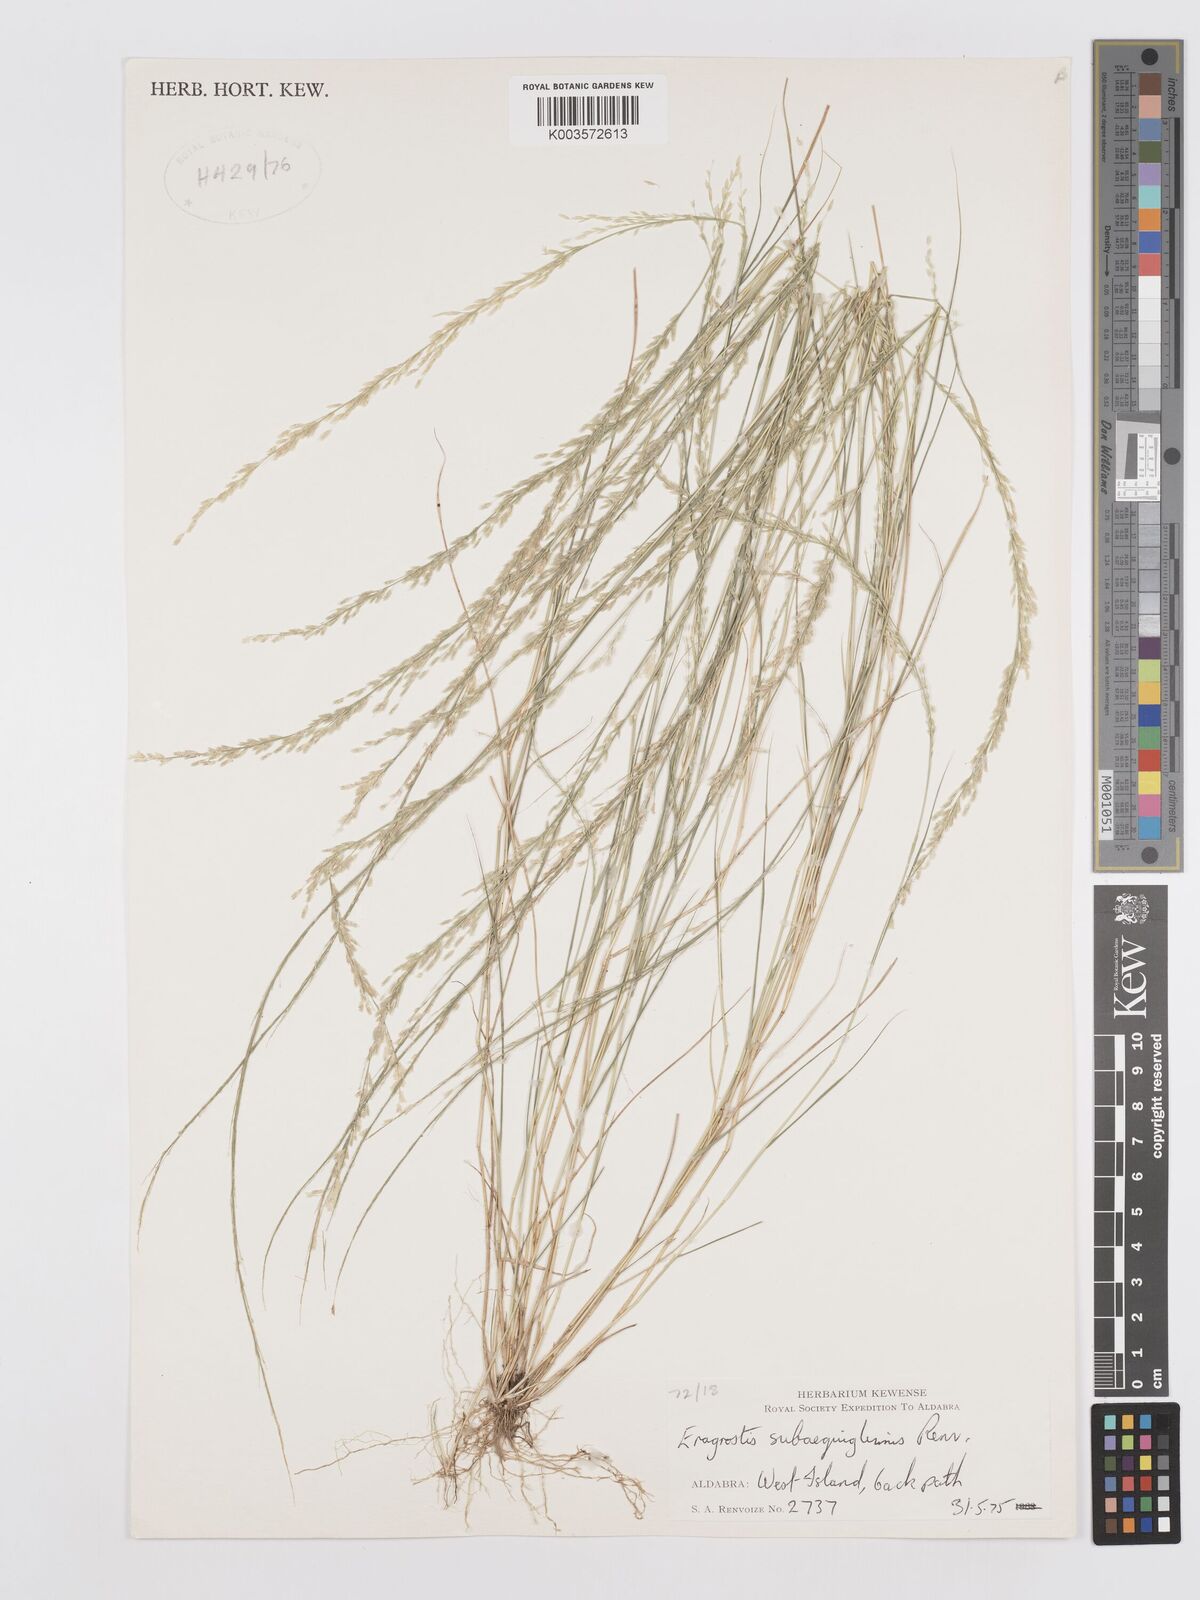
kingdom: Plantae
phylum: Tracheophyta
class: Liliopsida
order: Poales
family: Poaceae
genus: Eragrostis
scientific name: Eragrostis subaequiglumis
